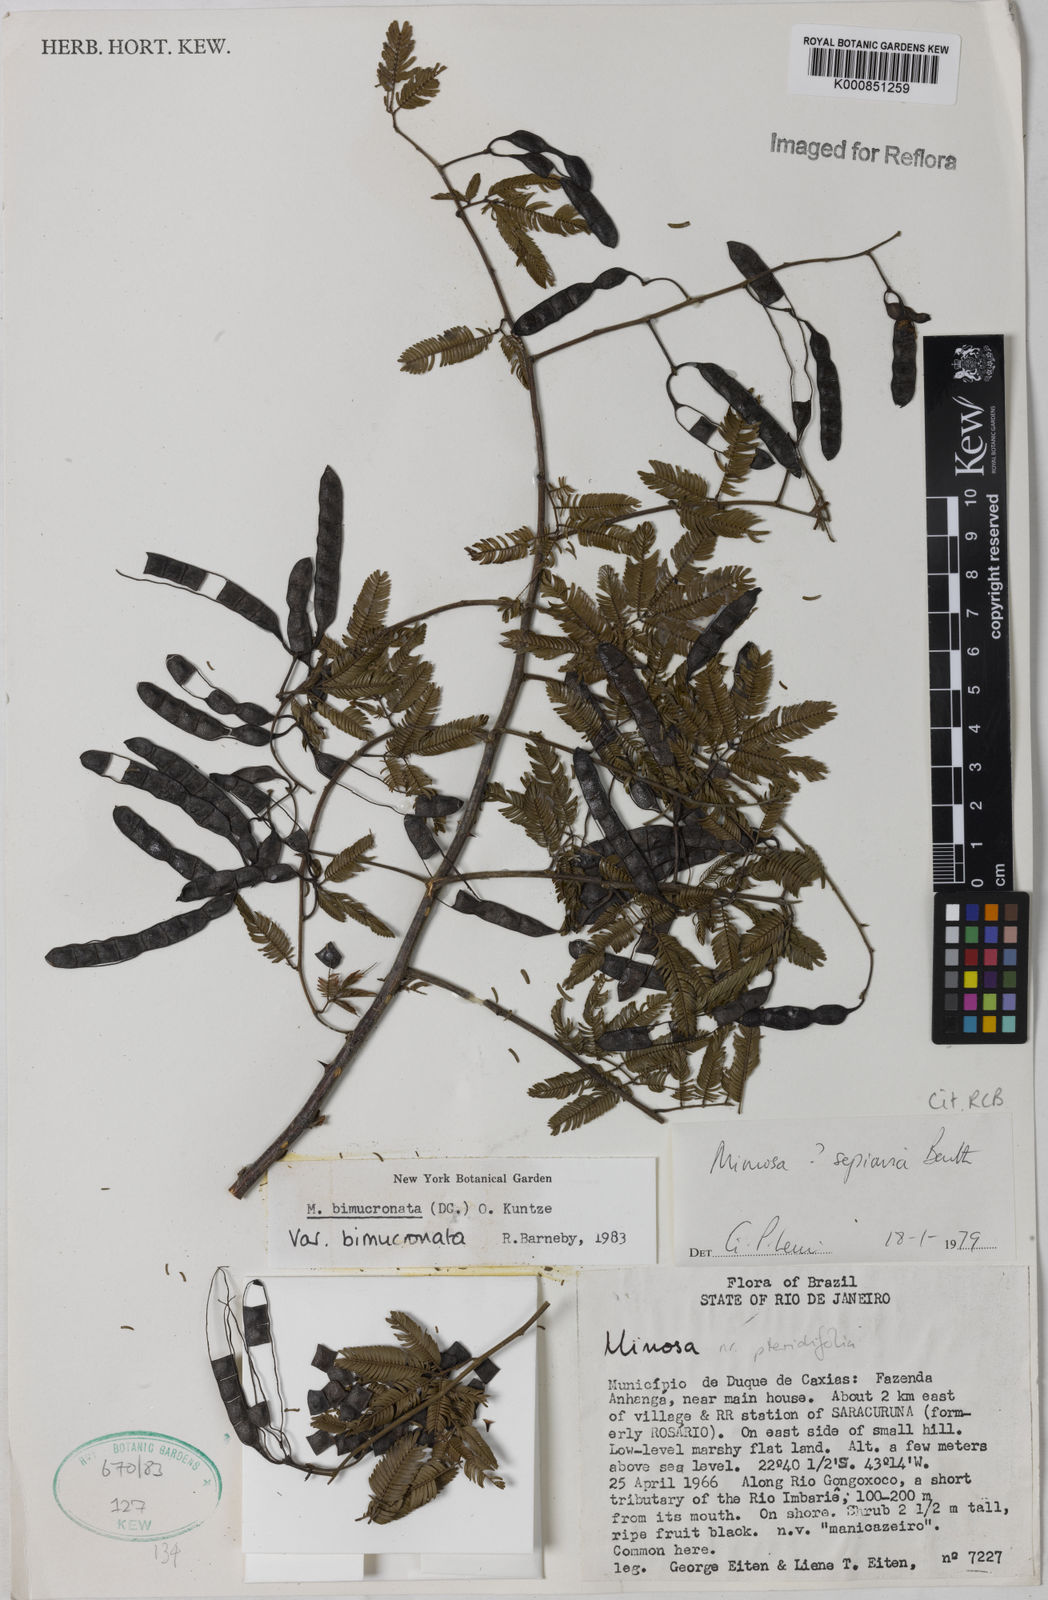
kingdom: Plantae
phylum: Tracheophyta
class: Magnoliopsida
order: Fabales
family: Fabaceae
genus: Mimosa
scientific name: Mimosa bimucronata
